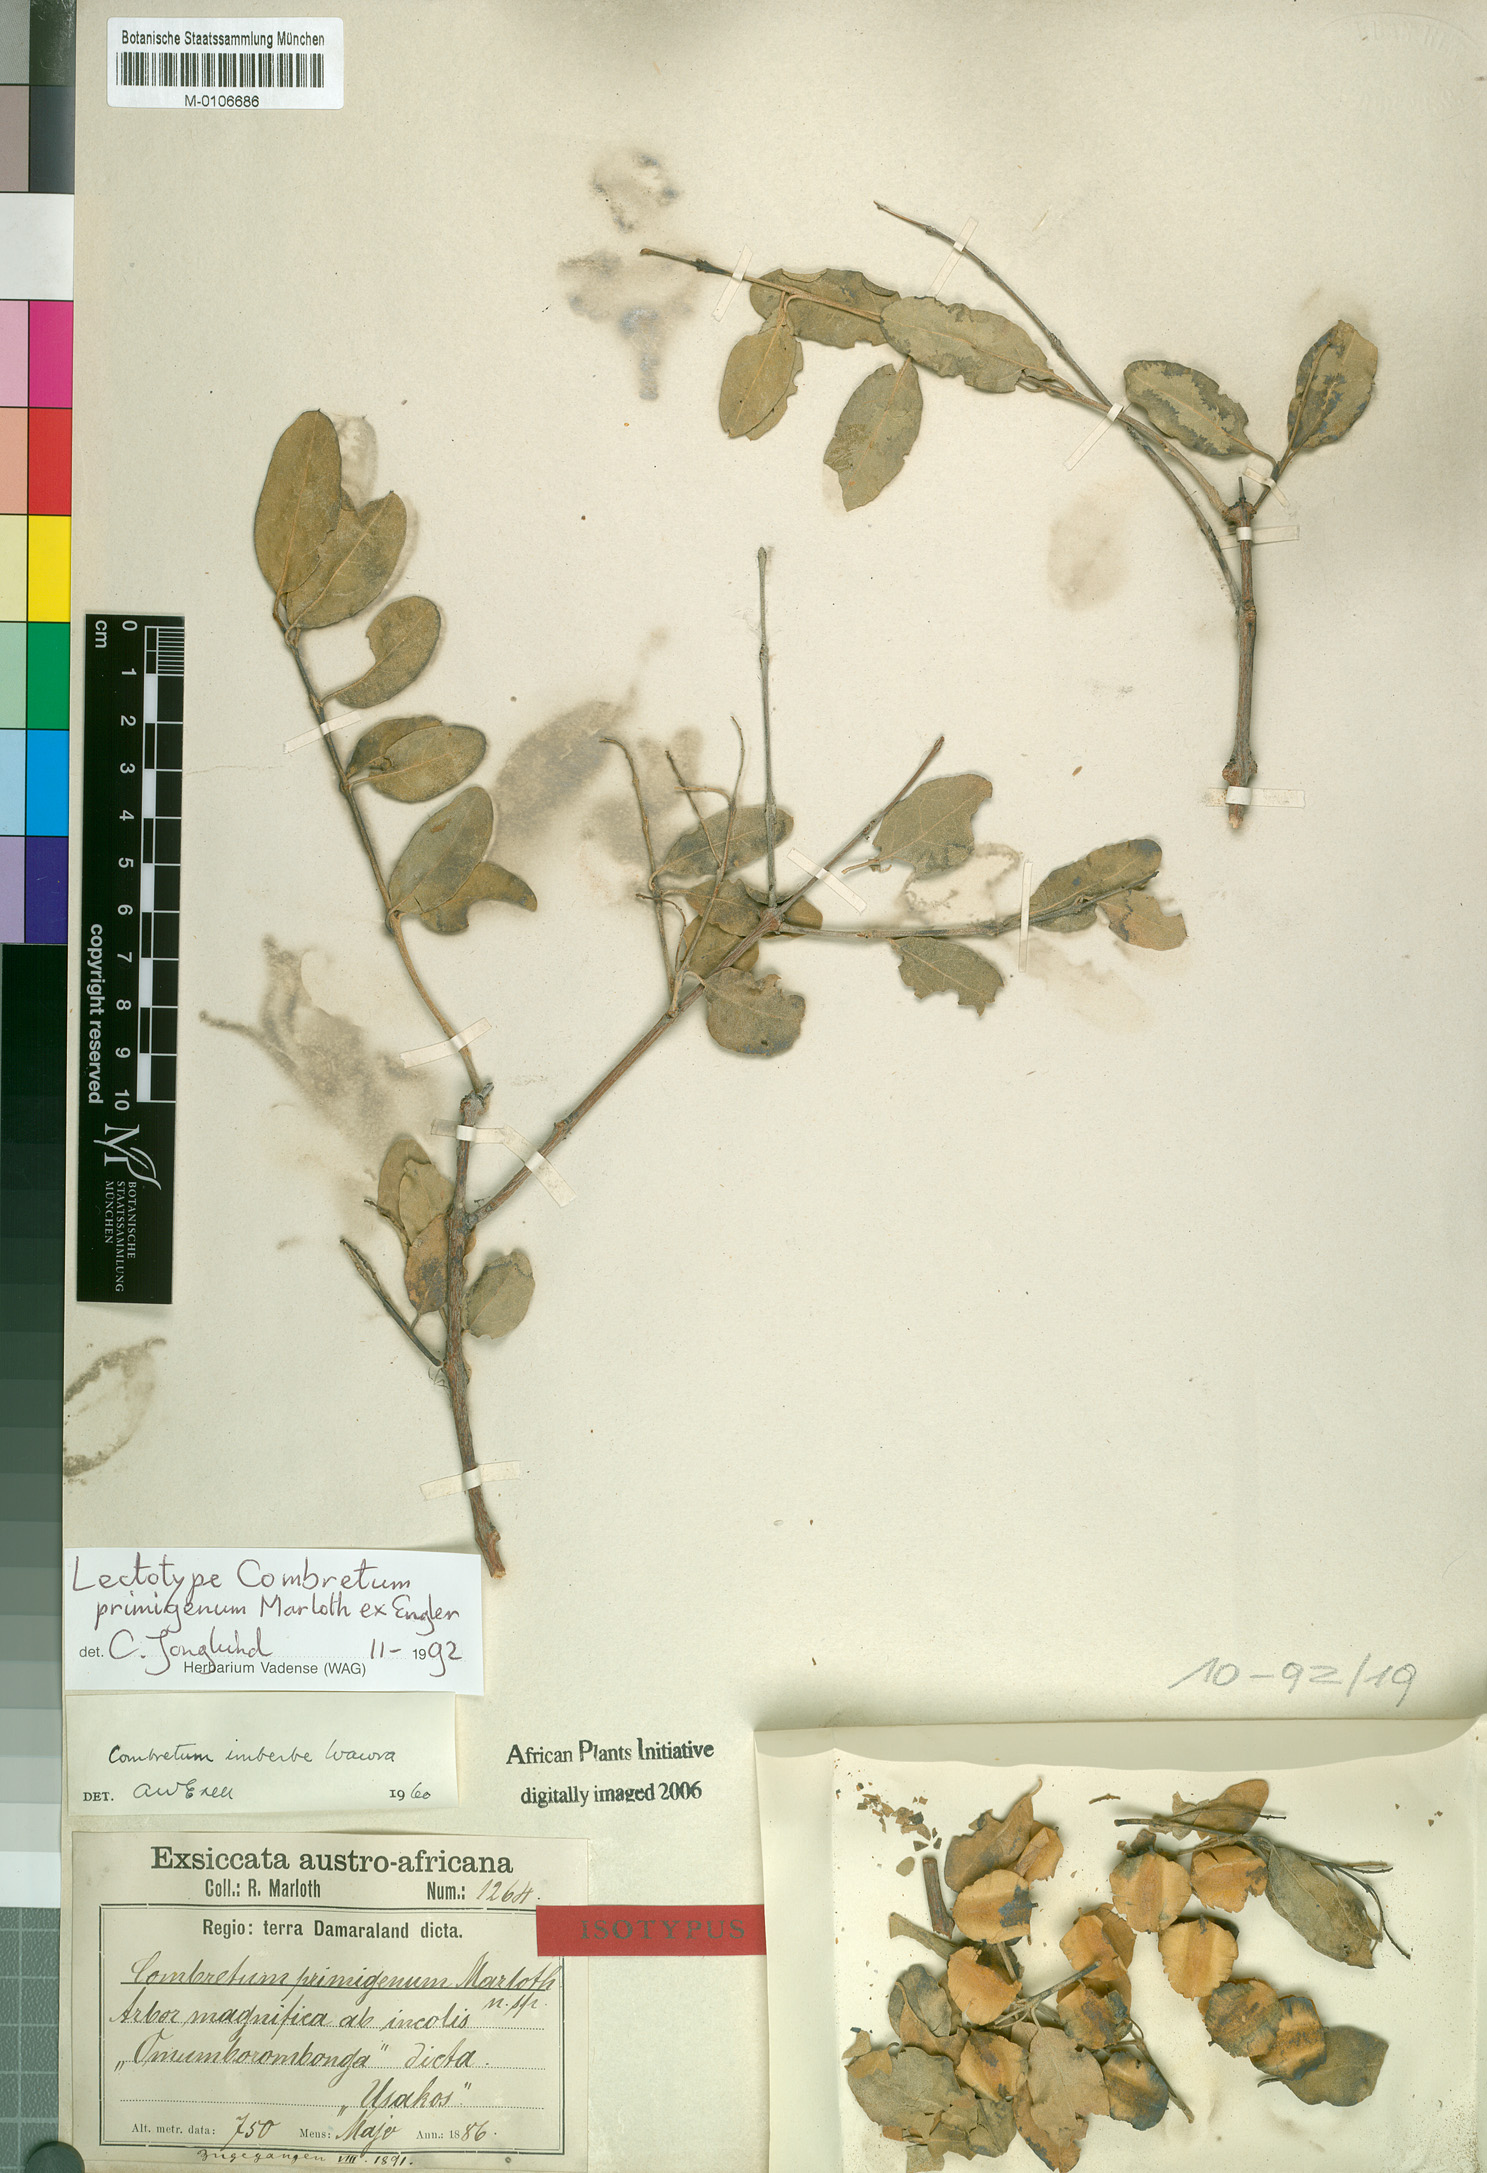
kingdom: Plantae
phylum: Tracheophyta
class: Magnoliopsida
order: Myrtales
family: Combretaceae
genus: Combretum
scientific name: Combretum imberbe
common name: Leadwood
